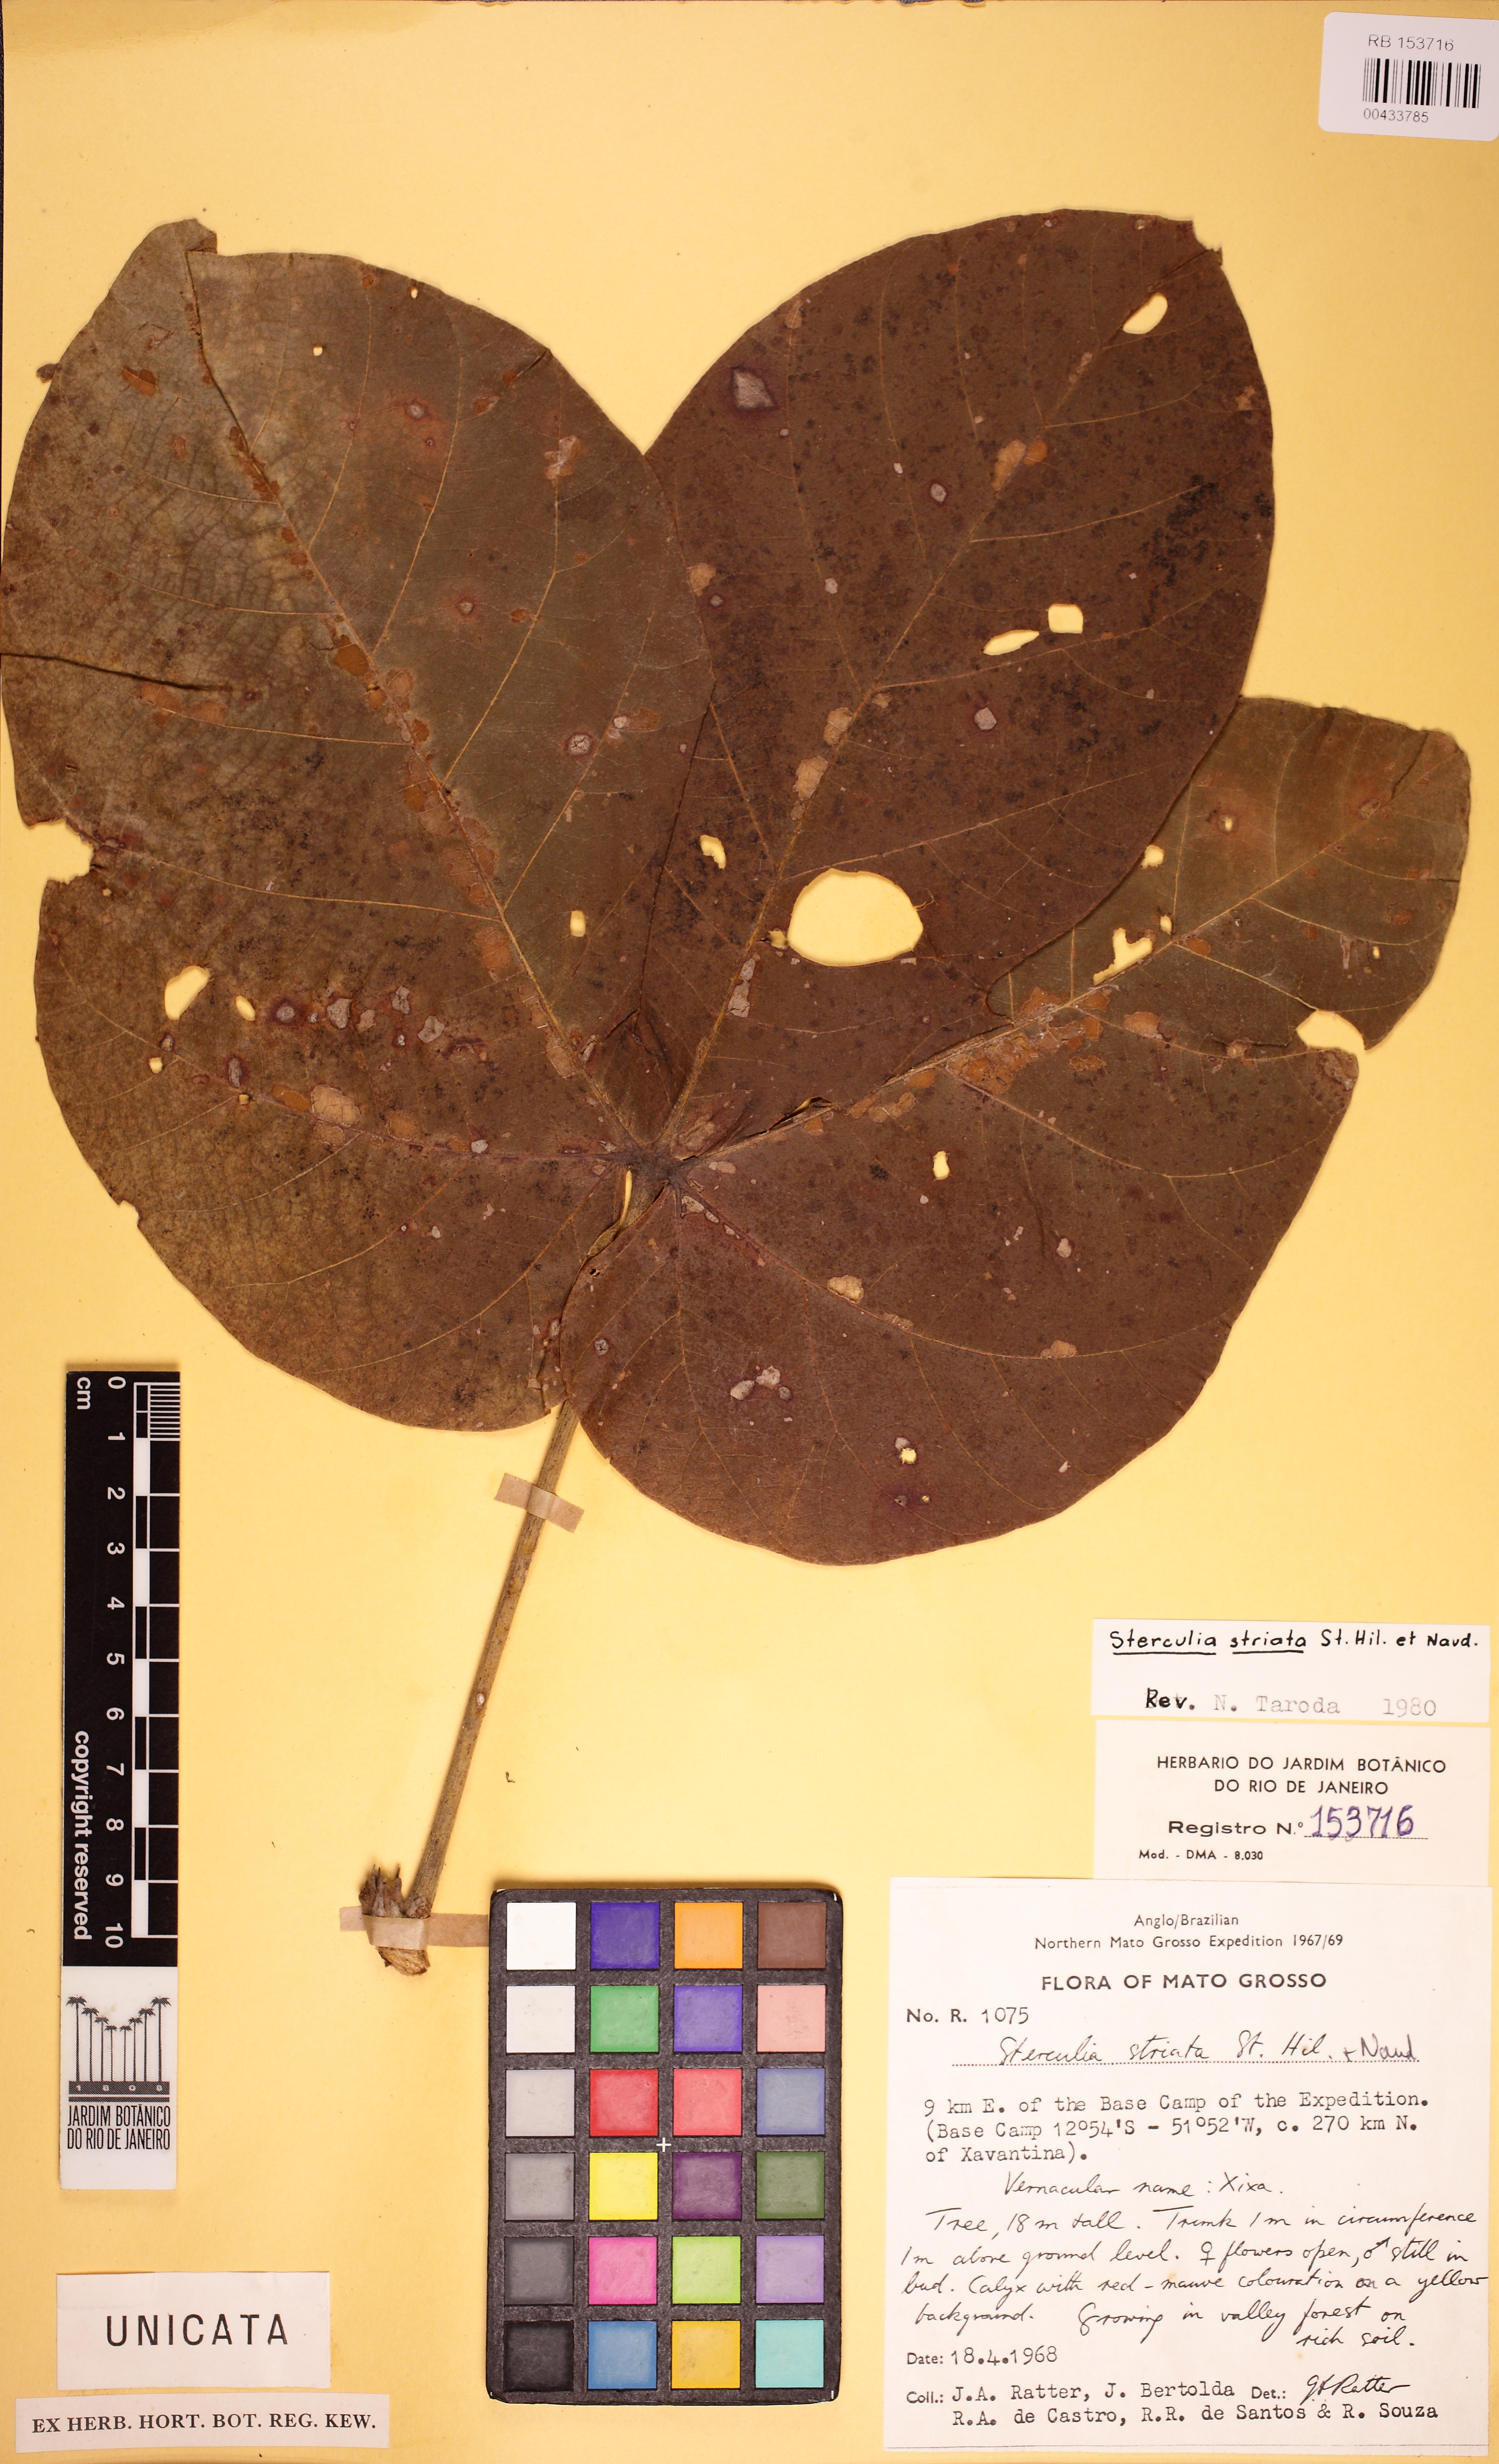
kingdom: Plantae
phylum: Tracheophyta
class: Magnoliopsida
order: Malvales
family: Malvaceae
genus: Sterculia
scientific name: Sterculia striata
